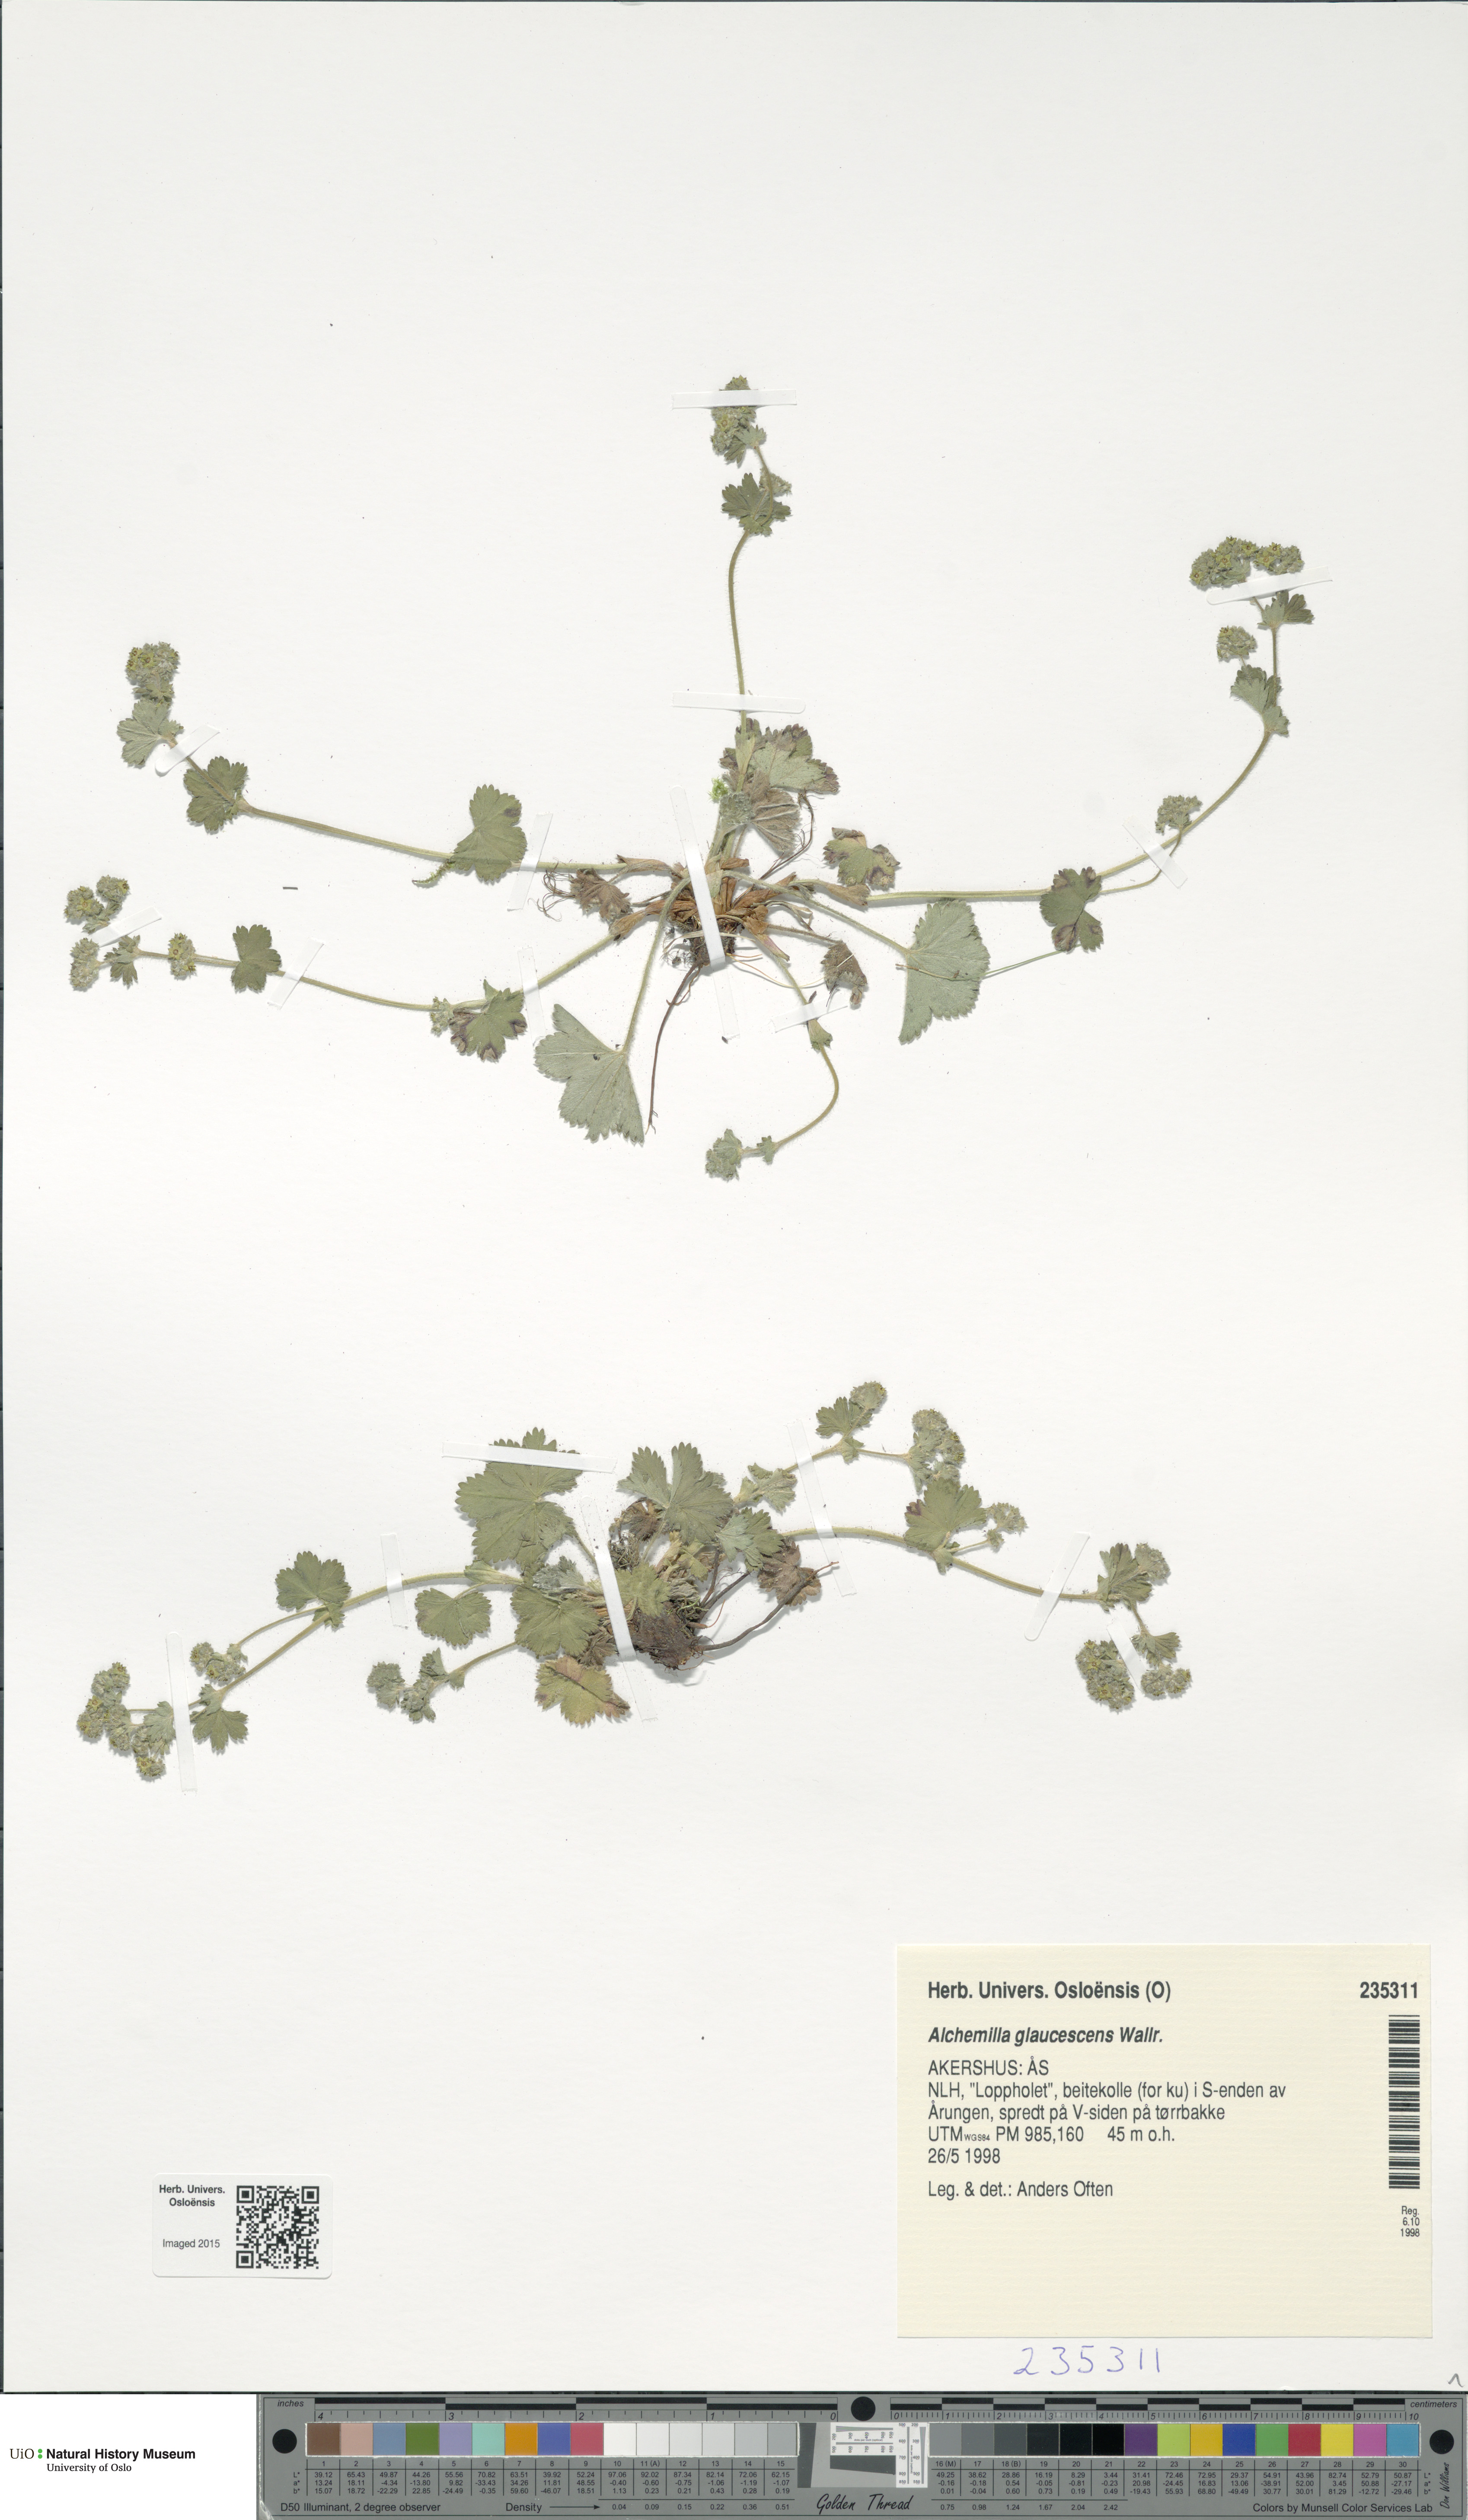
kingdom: Plantae
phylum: Tracheophyta
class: Magnoliopsida
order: Rosales
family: Rosaceae
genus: Alchemilla
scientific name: Alchemilla glaucescens
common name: Silky lady's mantle
